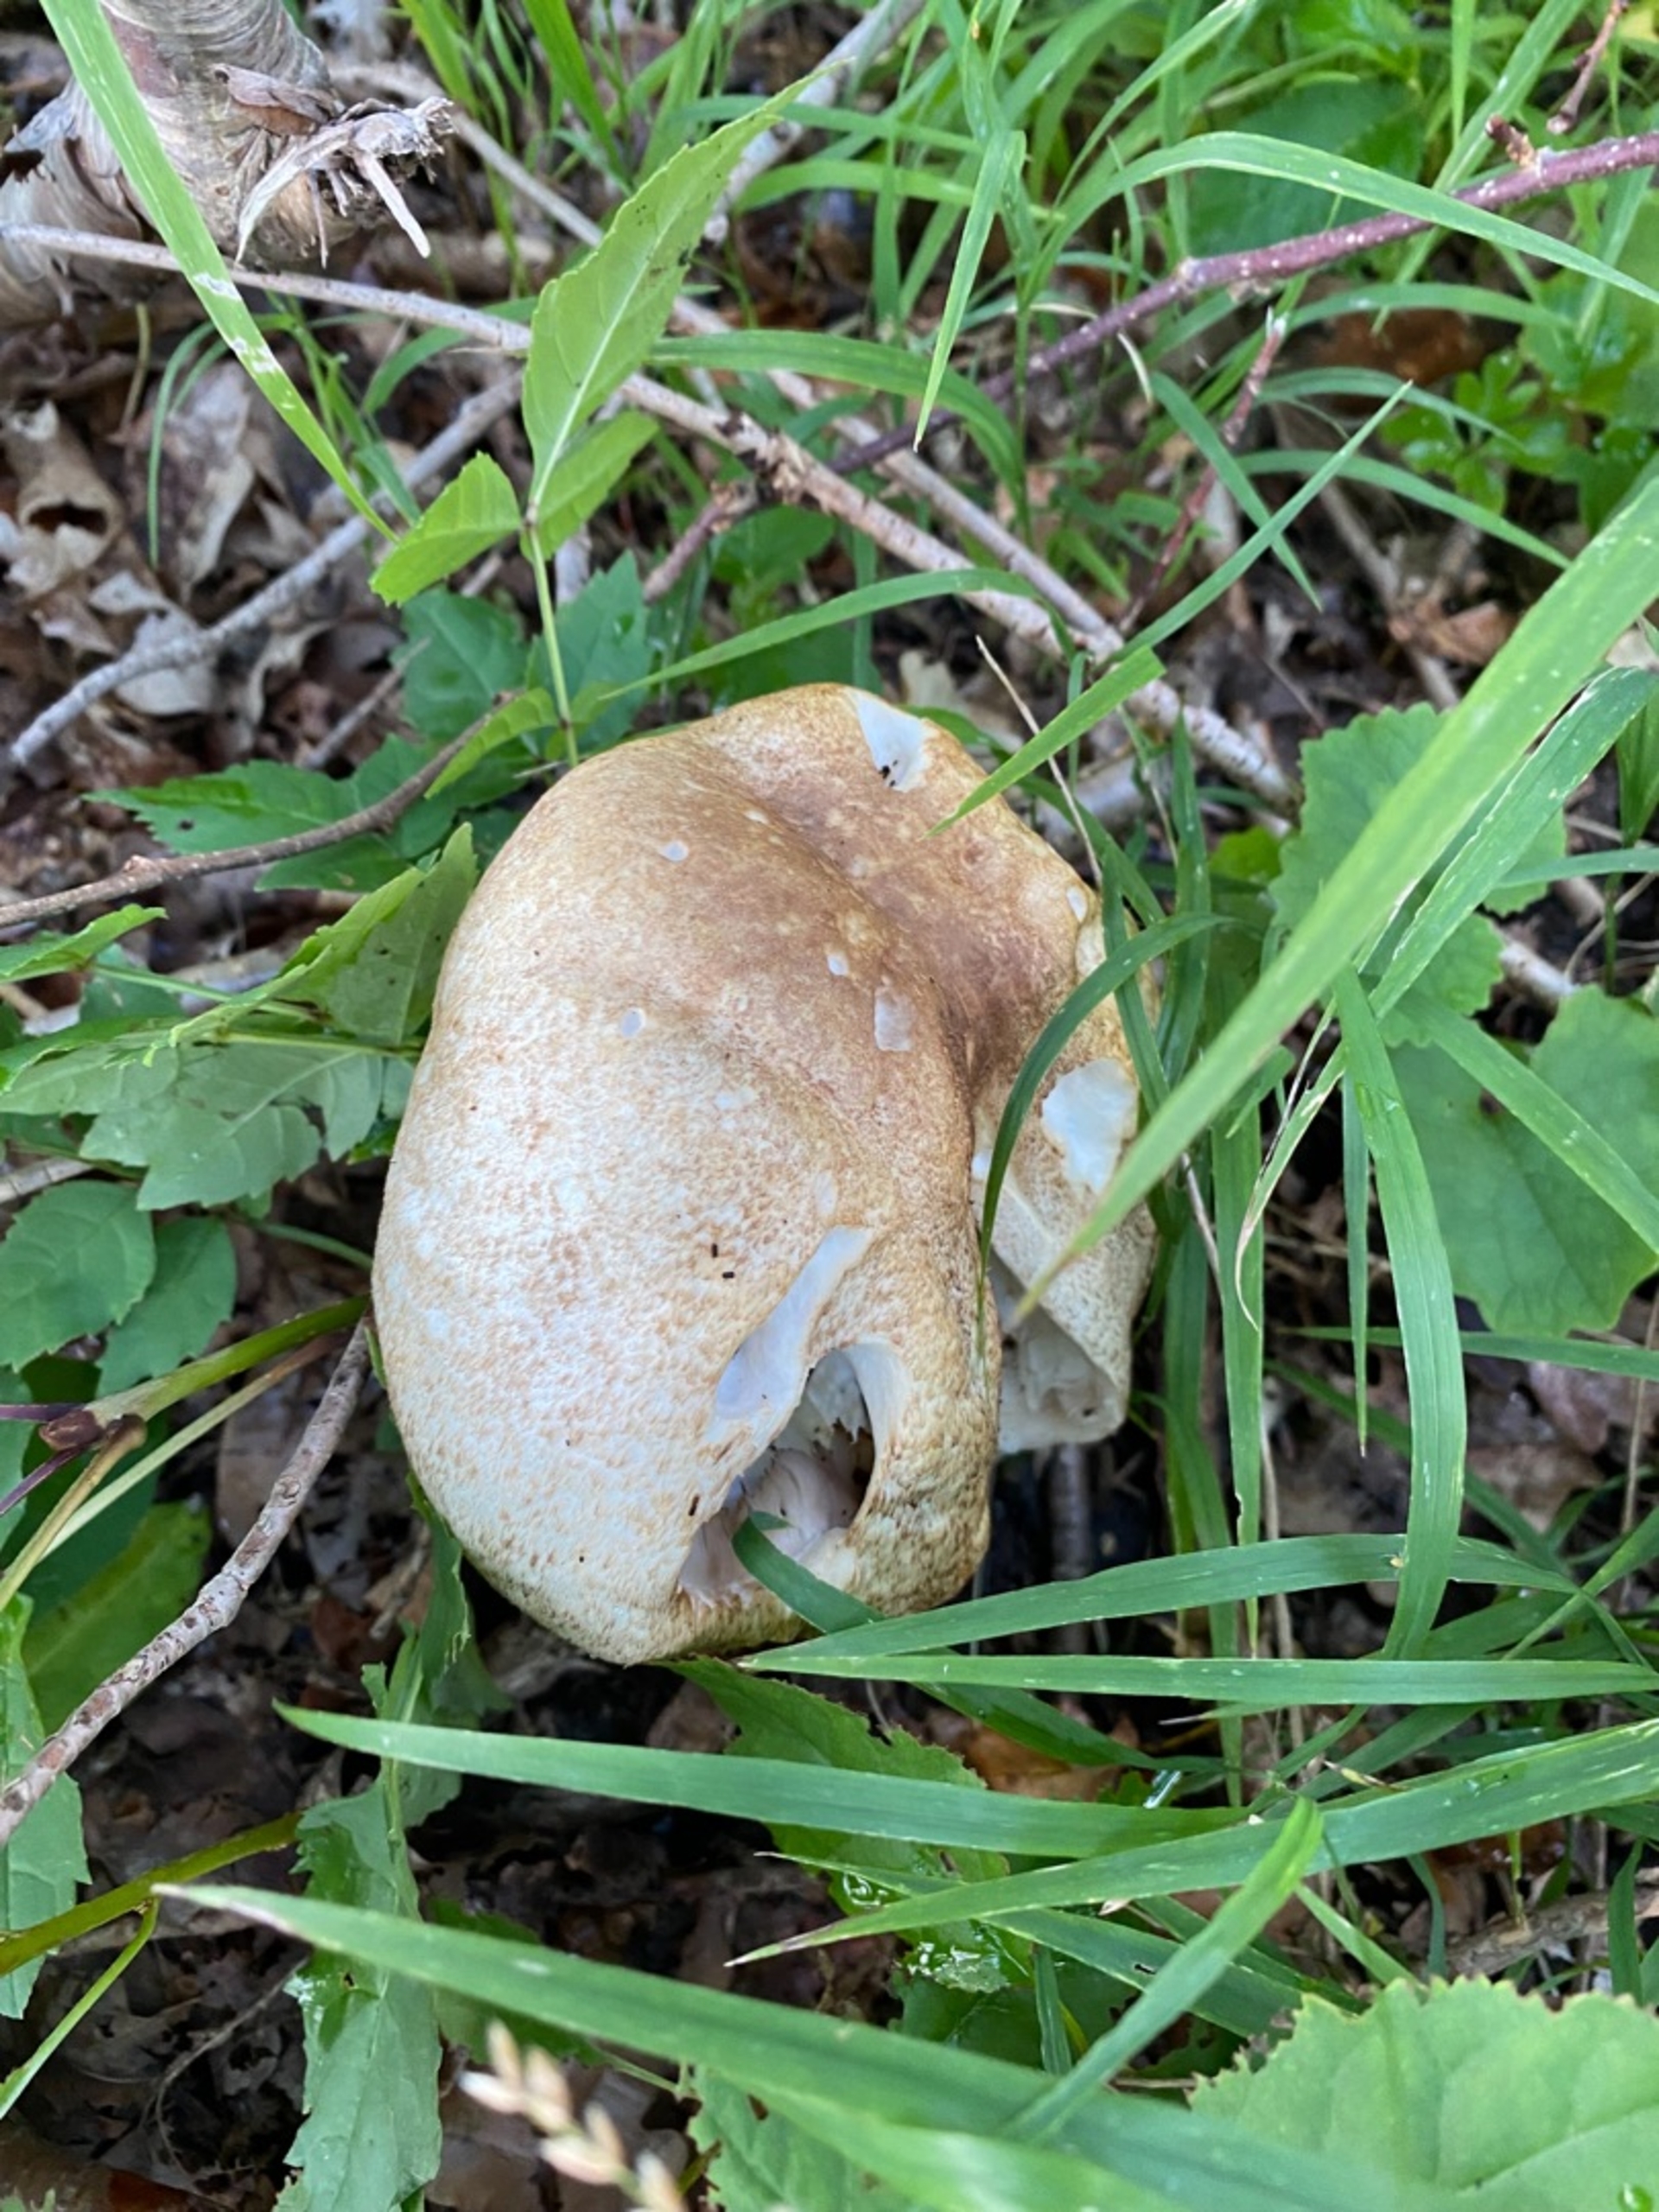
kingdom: Fungi
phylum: Basidiomycota
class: Agaricomycetes
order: Agaricales
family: Agaricaceae
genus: Agaricus
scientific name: Agaricus
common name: Champignon
